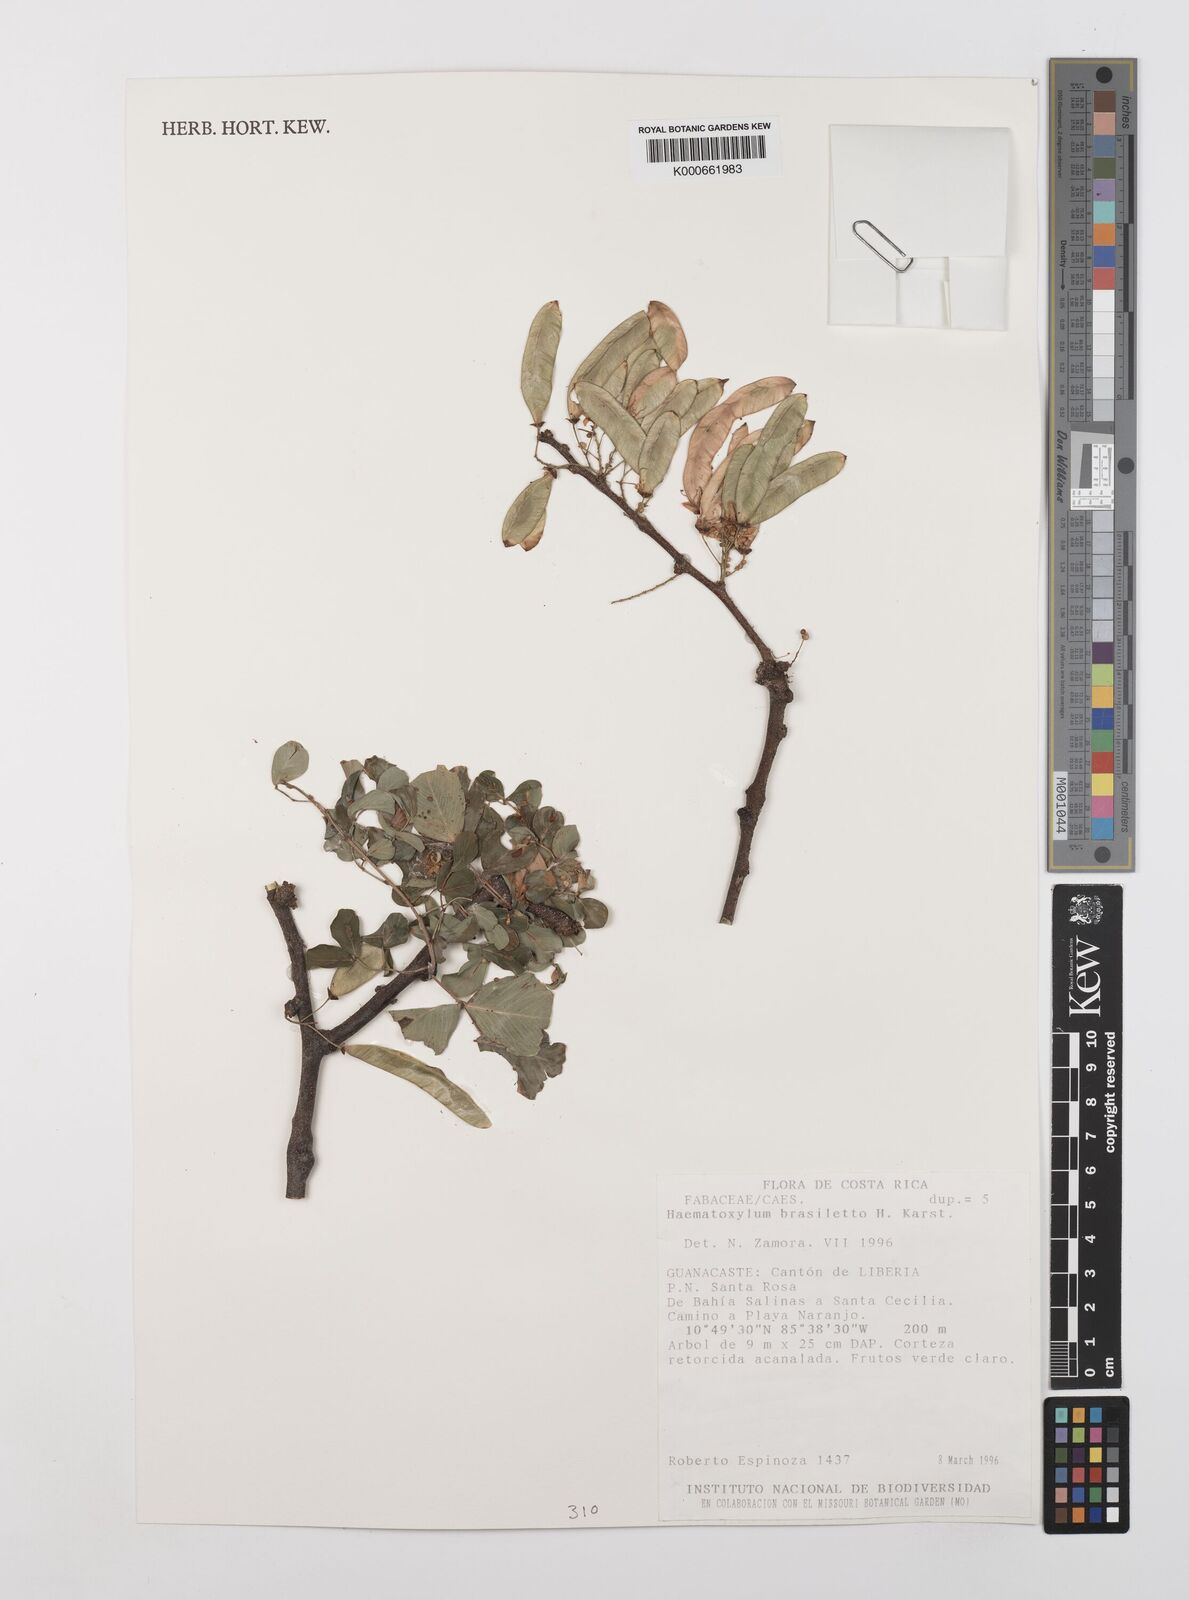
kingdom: Plantae
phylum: Tracheophyta
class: Magnoliopsida
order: Fabales
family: Fabaceae
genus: Haematoxylum
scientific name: Haematoxylum brasiletto
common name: Peachwood
